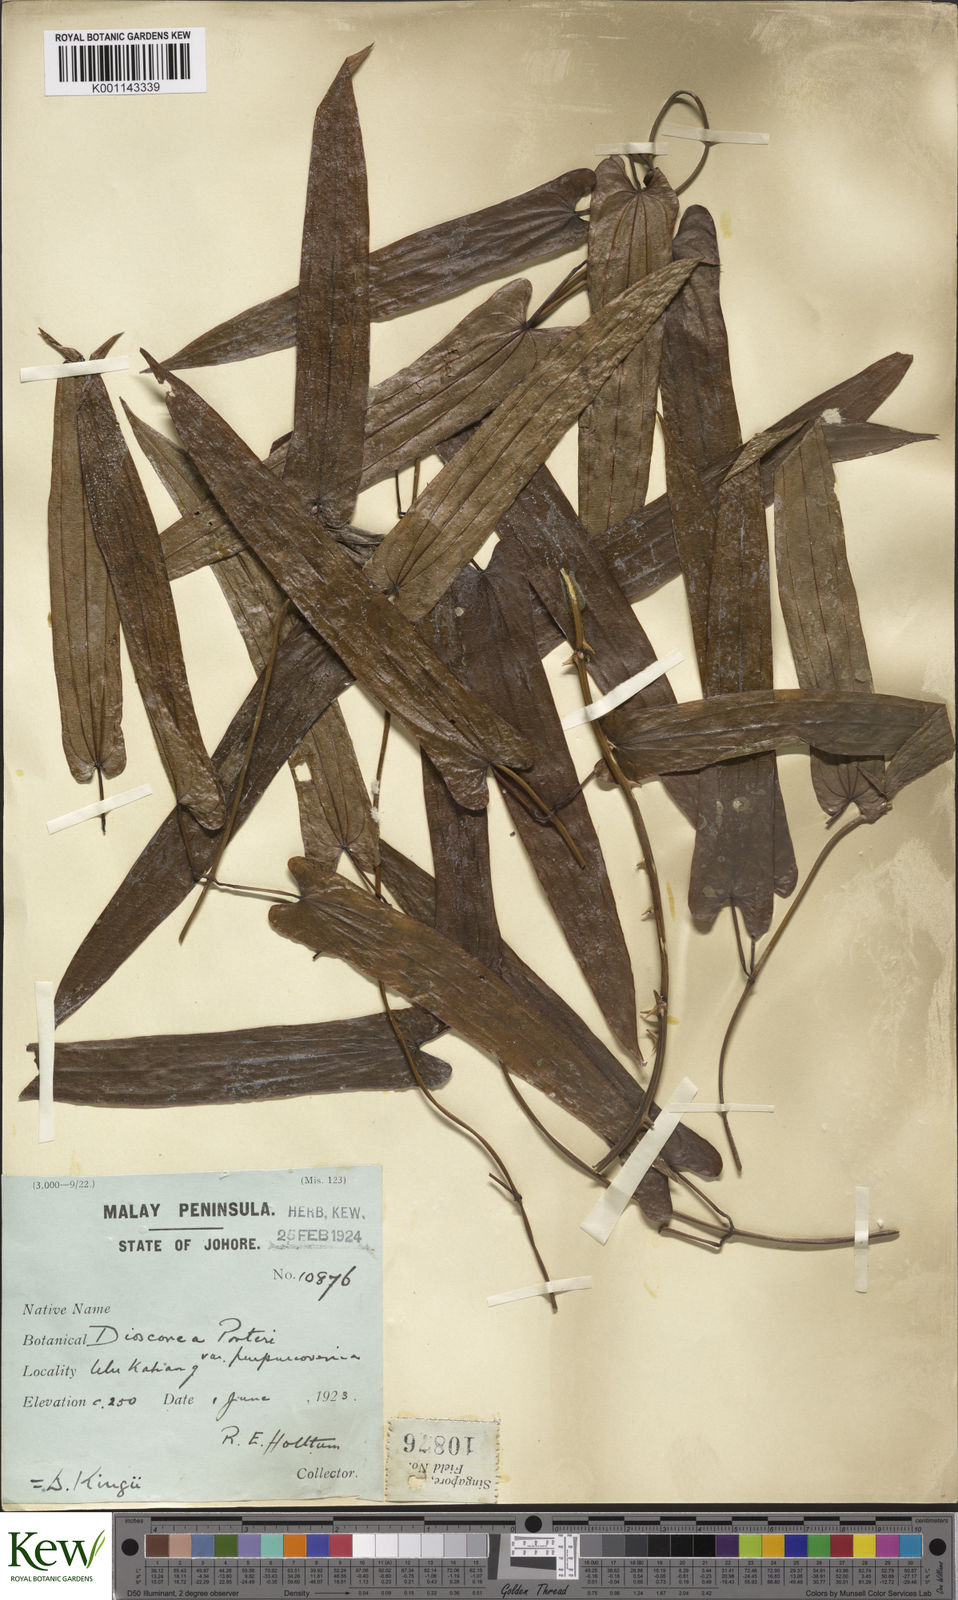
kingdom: Plantae
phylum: Tracheophyta
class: Liliopsida
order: Dioscoreales
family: Dioscoreaceae
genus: Dioscorea
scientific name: Dioscorea kingii
